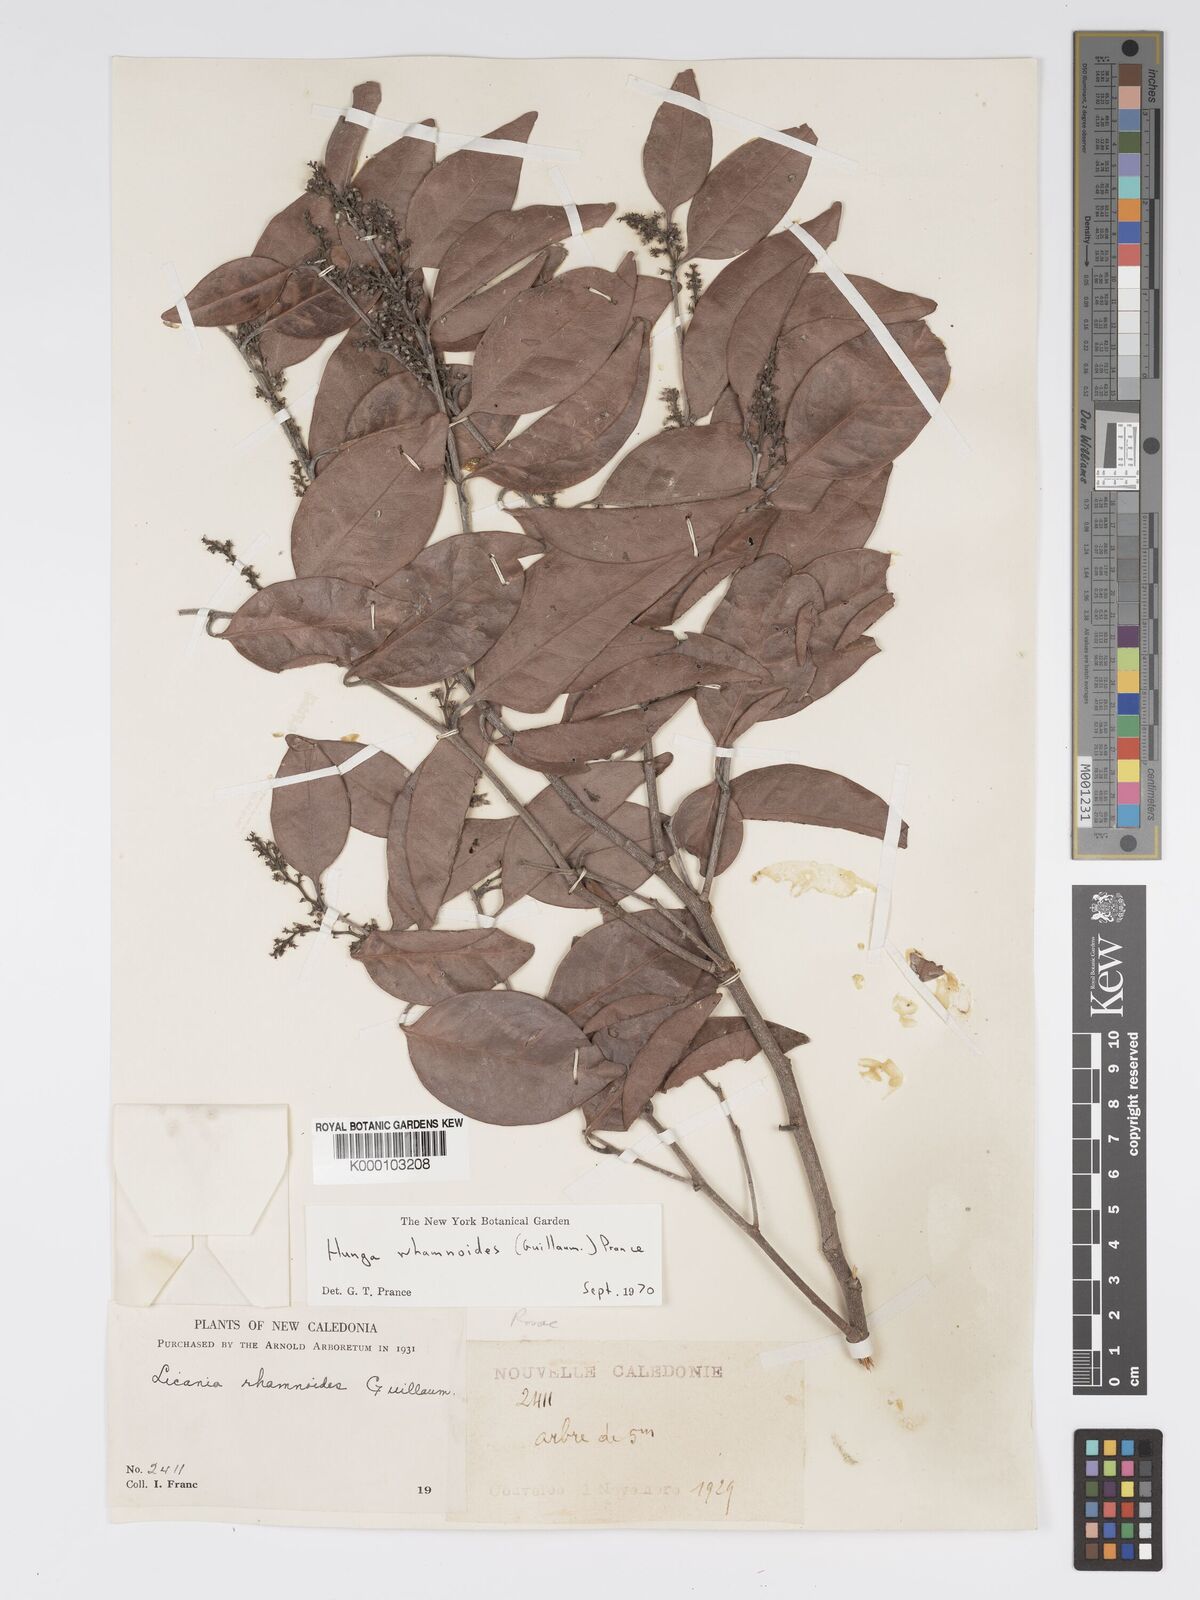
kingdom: Plantae
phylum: Tracheophyta
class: Magnoliopsida
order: Malpighiales
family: Chrysobalanaceae
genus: Hunga
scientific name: Hunga rhamnoides
